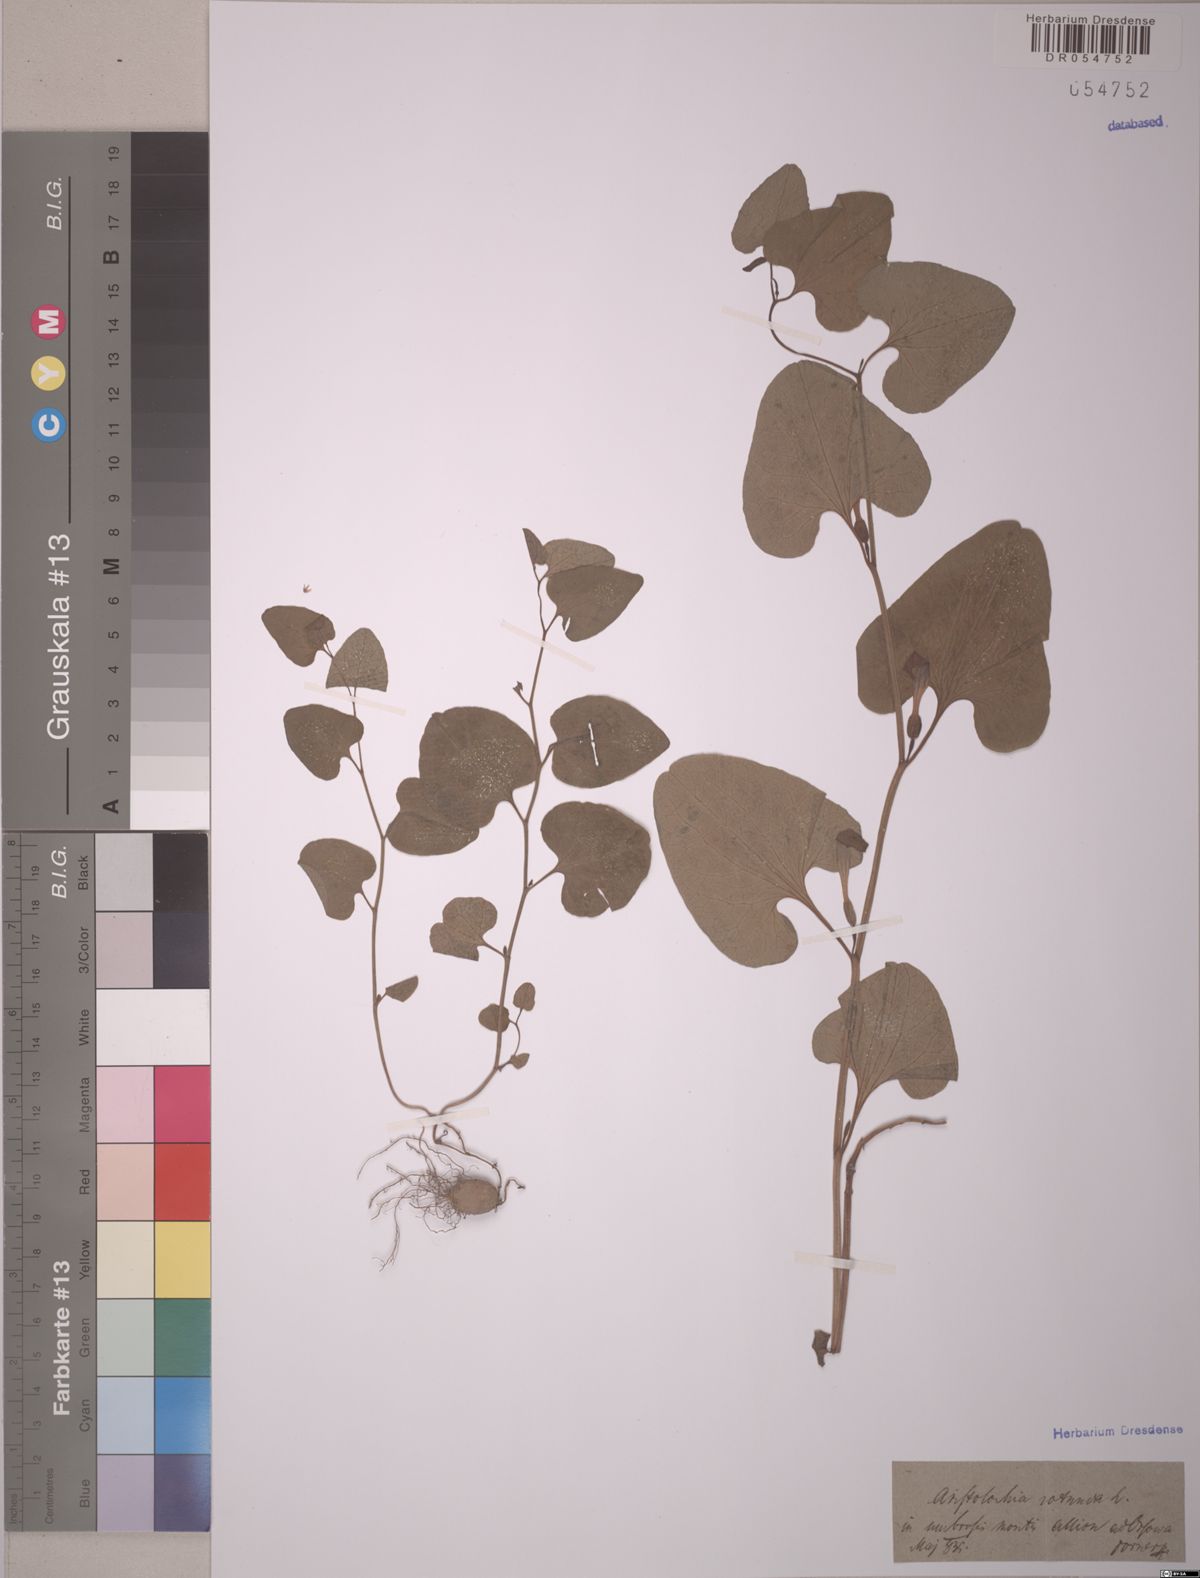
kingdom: Plantae
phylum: Tracheophyta
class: Magnoliopsida
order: Piperales
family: Aristolochiaceae
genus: Aristolochia
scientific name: Aristolochia rotunda
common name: Smearwort
